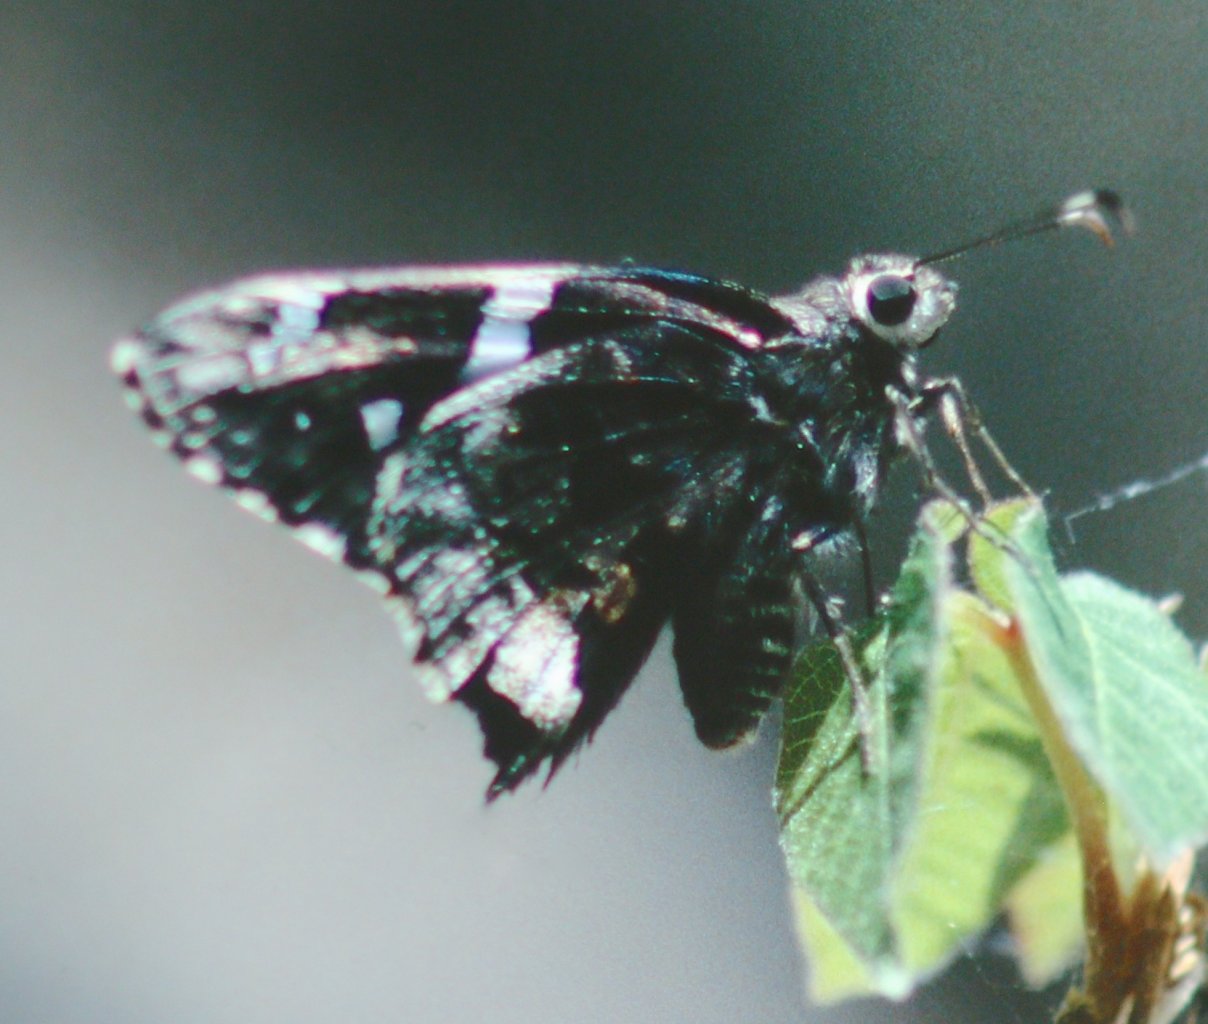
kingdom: Animalia
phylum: Arthropoda
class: Insecta
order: Lepidoptera
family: Hesperiidae
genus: Codatractus
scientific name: Codatractus arizonensis
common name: Arizona Skipper
